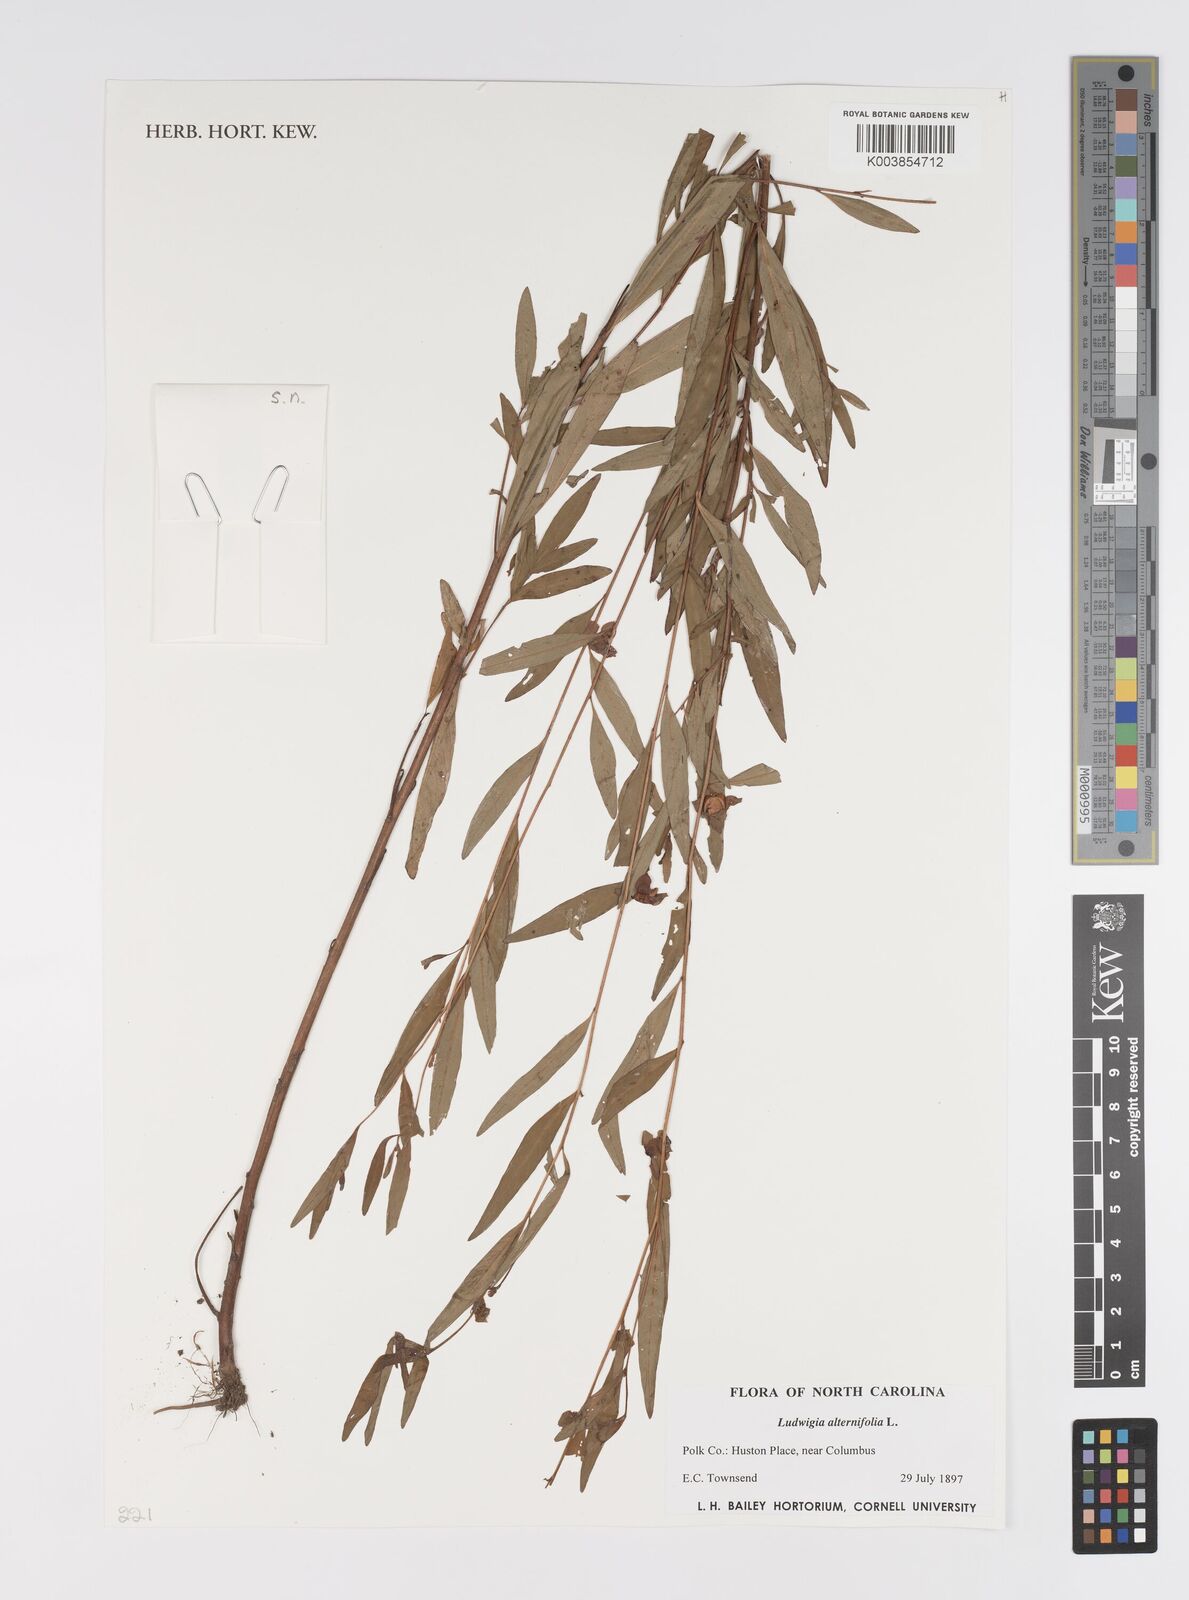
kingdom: Plantae
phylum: Tracheophyta
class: Magnoliopsida
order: Myrtales
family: Onagraceae
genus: Ludwigia
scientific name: Ludwigia alternifolia
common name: Rattlebox
